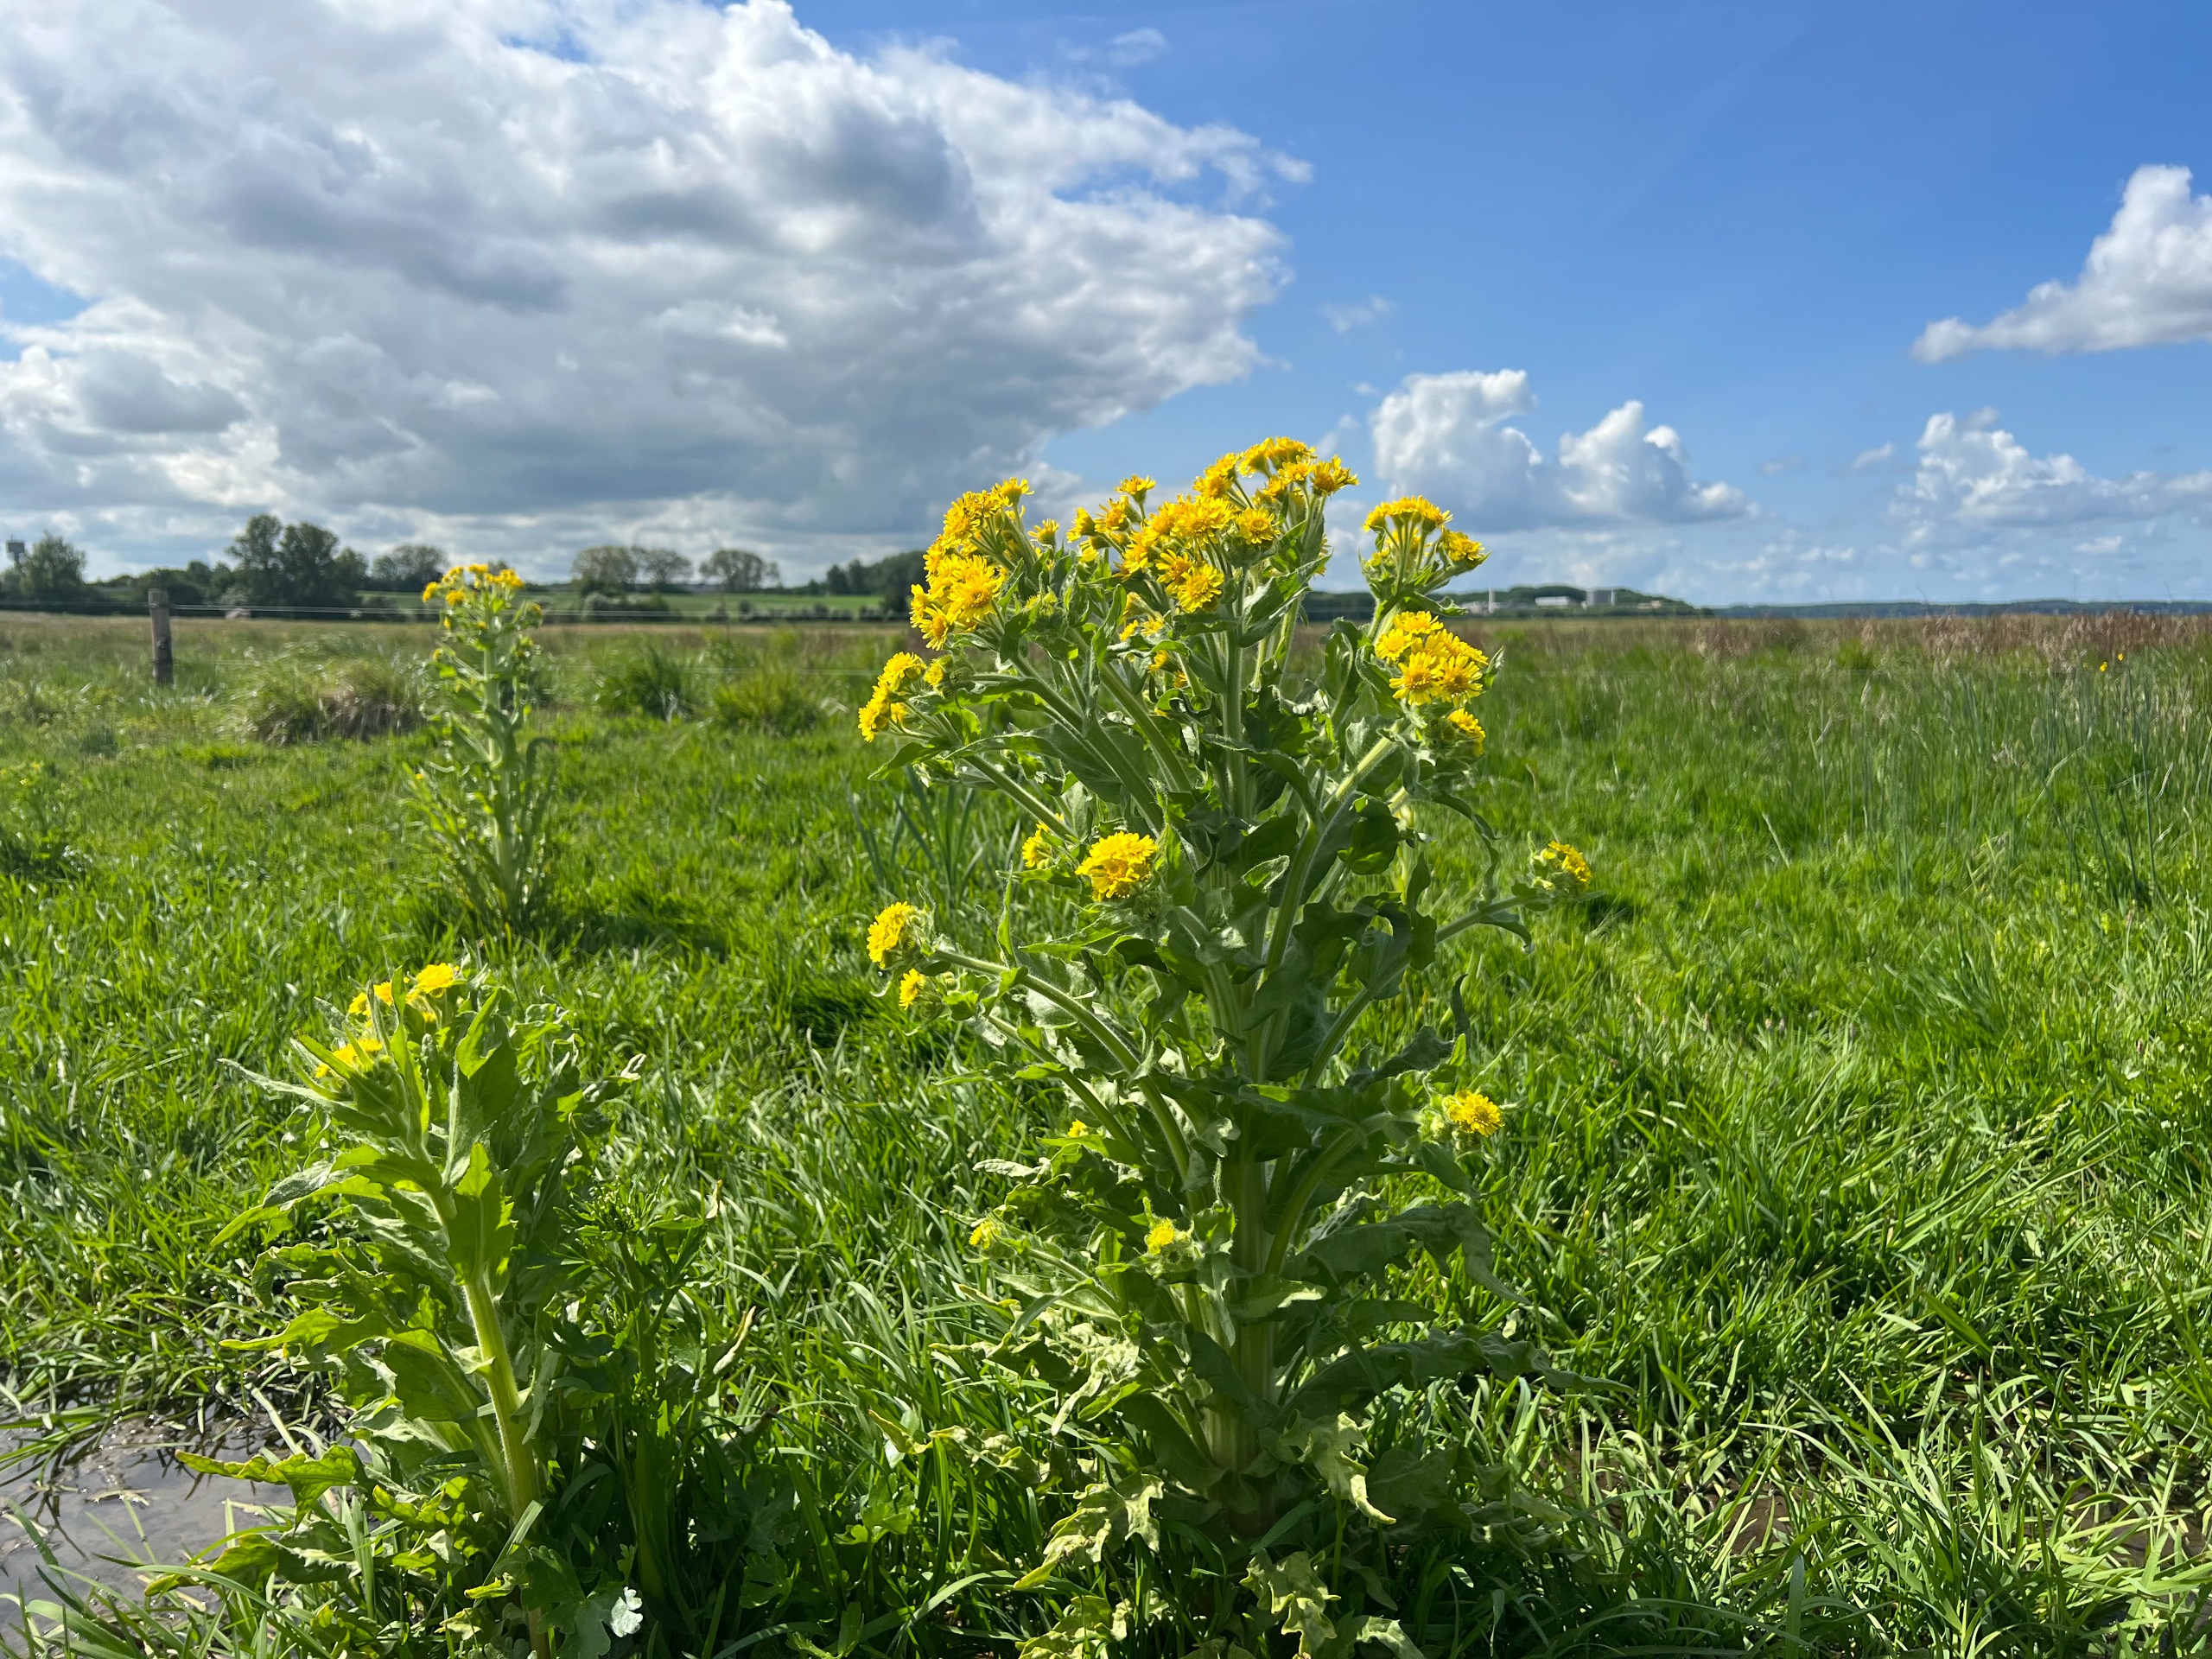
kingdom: Plantae
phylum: Tracheophyta
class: Magnoliopsida
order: Asterales
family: Asteraceae
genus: Tephroseris
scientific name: Tephroseris palustris
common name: Kær-fnokurt
